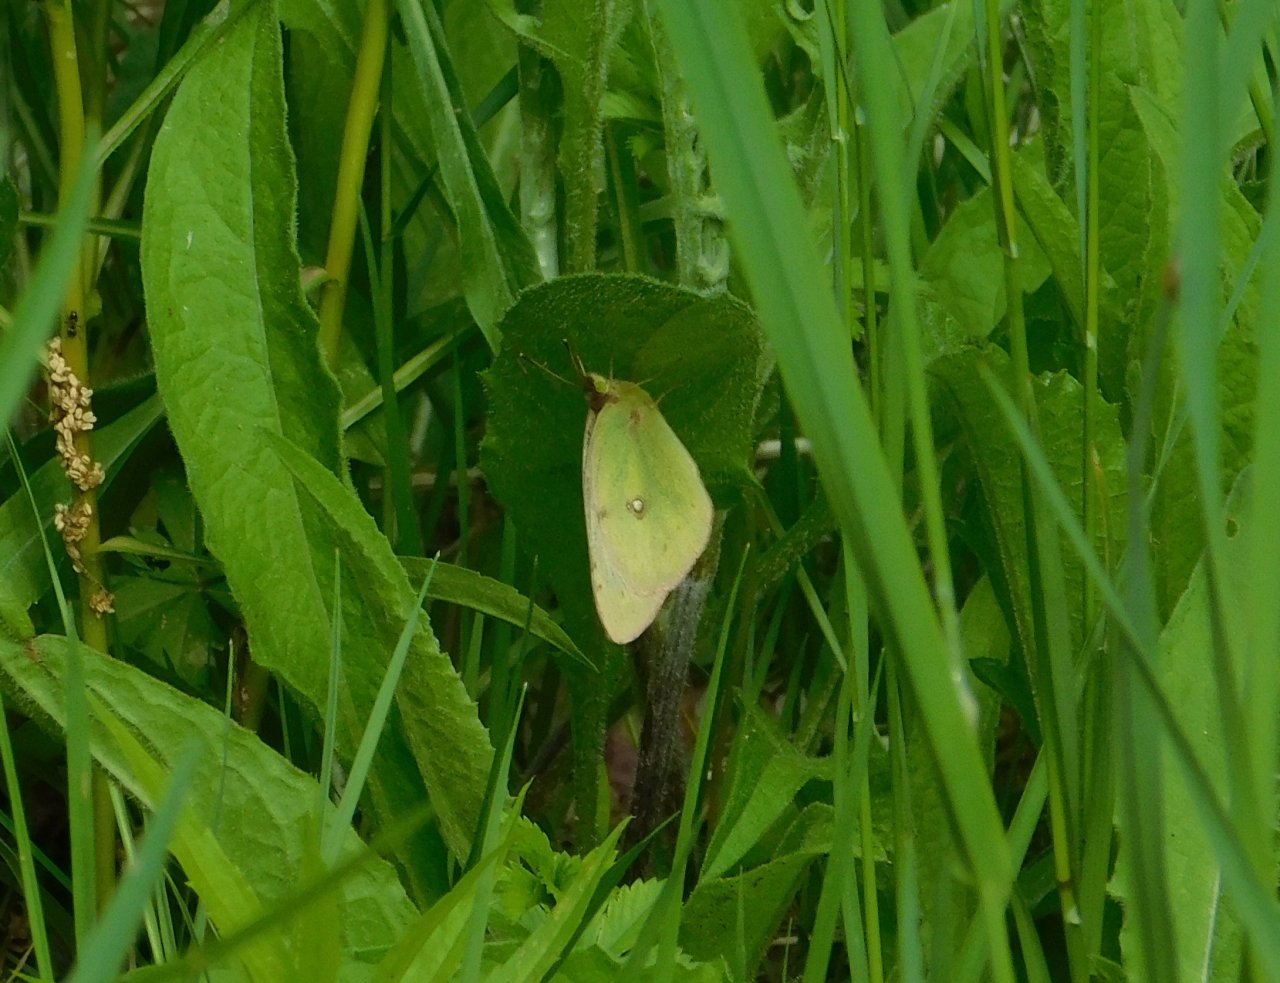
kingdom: Animalia
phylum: Arthropoda
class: Insecta
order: Lepidoptera
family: Pieridae
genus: Colias
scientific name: Colias philodice
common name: Clouded Sulphur
